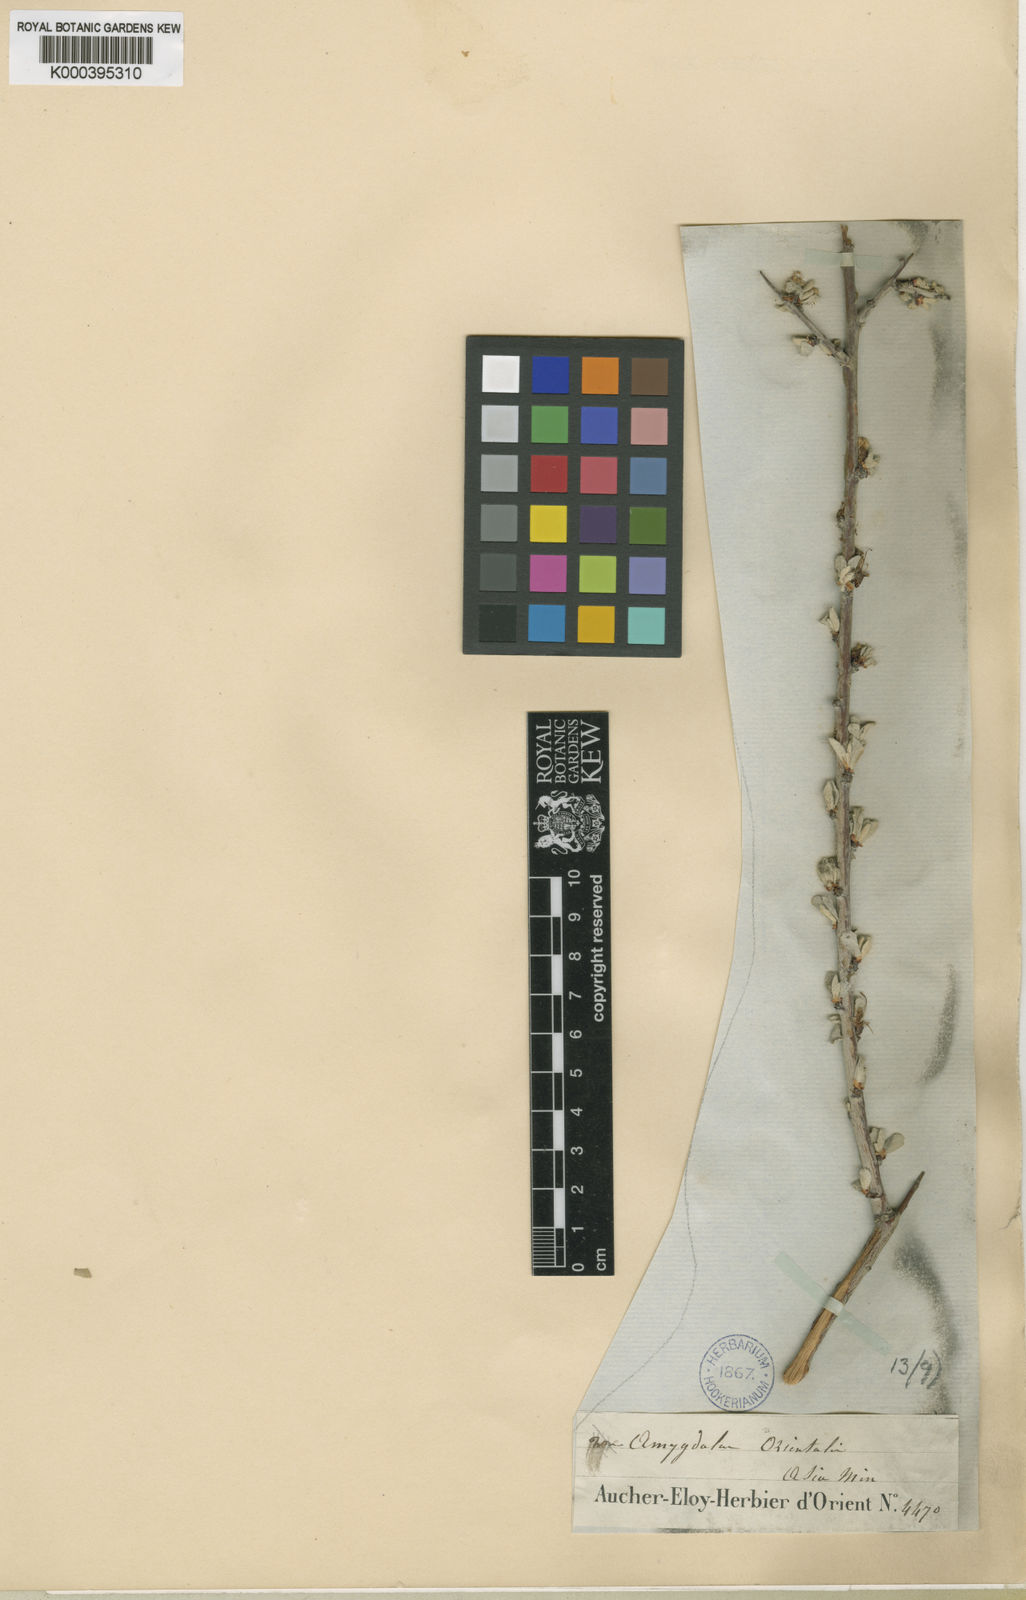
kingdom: Plantae
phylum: Tracheophyta
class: Magnoliopsida
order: Rosales
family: Rosaceae
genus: Prunus
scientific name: Prunus argentea
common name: Silver almond
